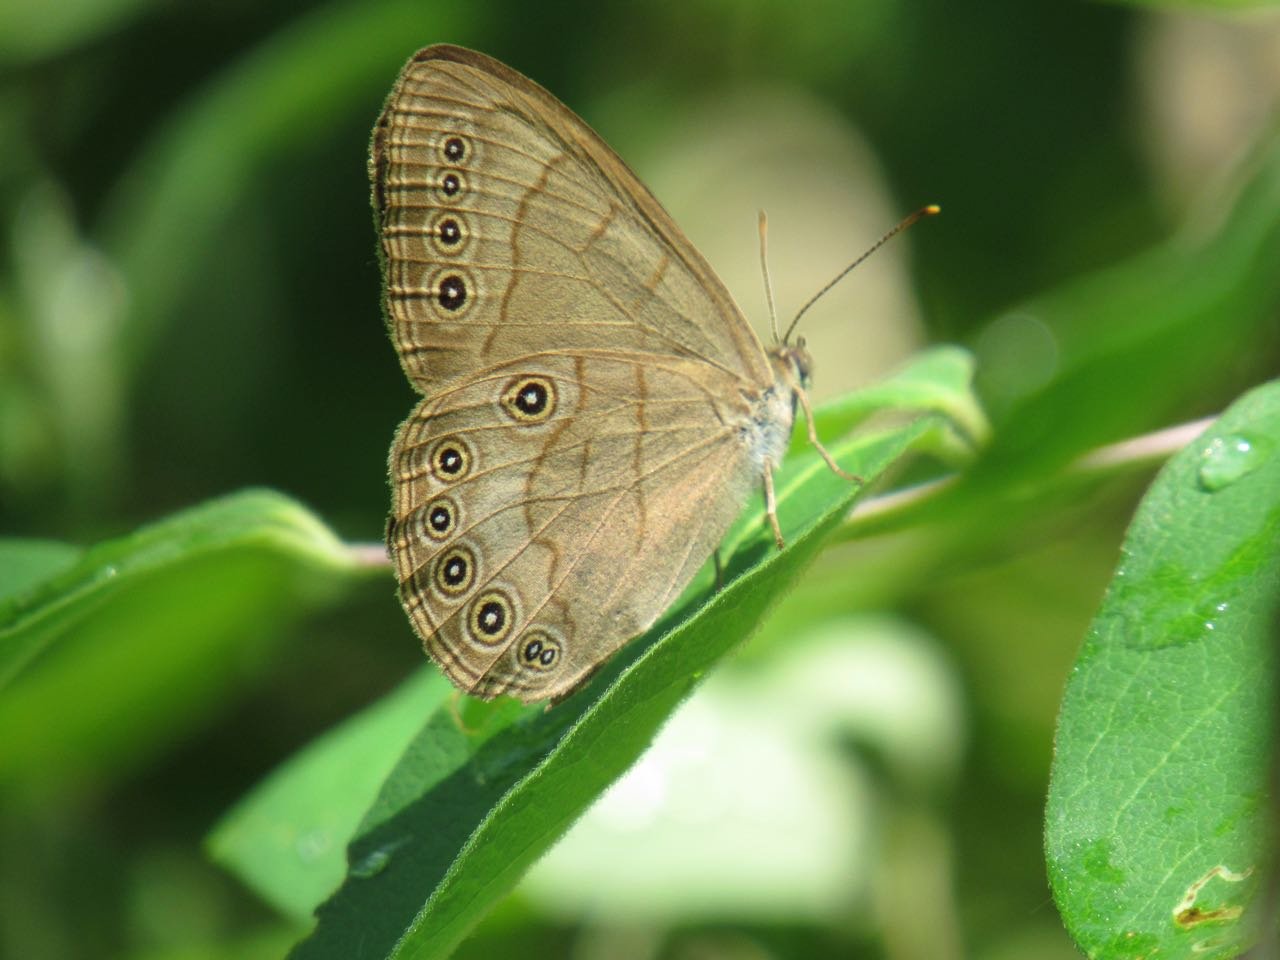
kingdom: Animalia
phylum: Arthropoda
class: Insecta
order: Lepidoptera
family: Nymphalidae
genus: Lethe
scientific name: Lethe eurydice
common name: Appalachian Eyed Brown
